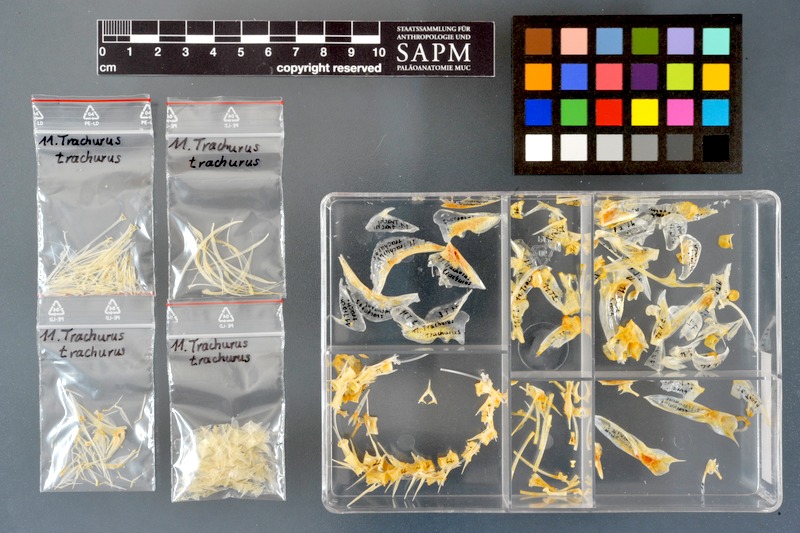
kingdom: Animalia
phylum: Chordata
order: Perciformes
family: Carangidae
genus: Trachurus
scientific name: Trachurus trachurus
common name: Horse mackerel
